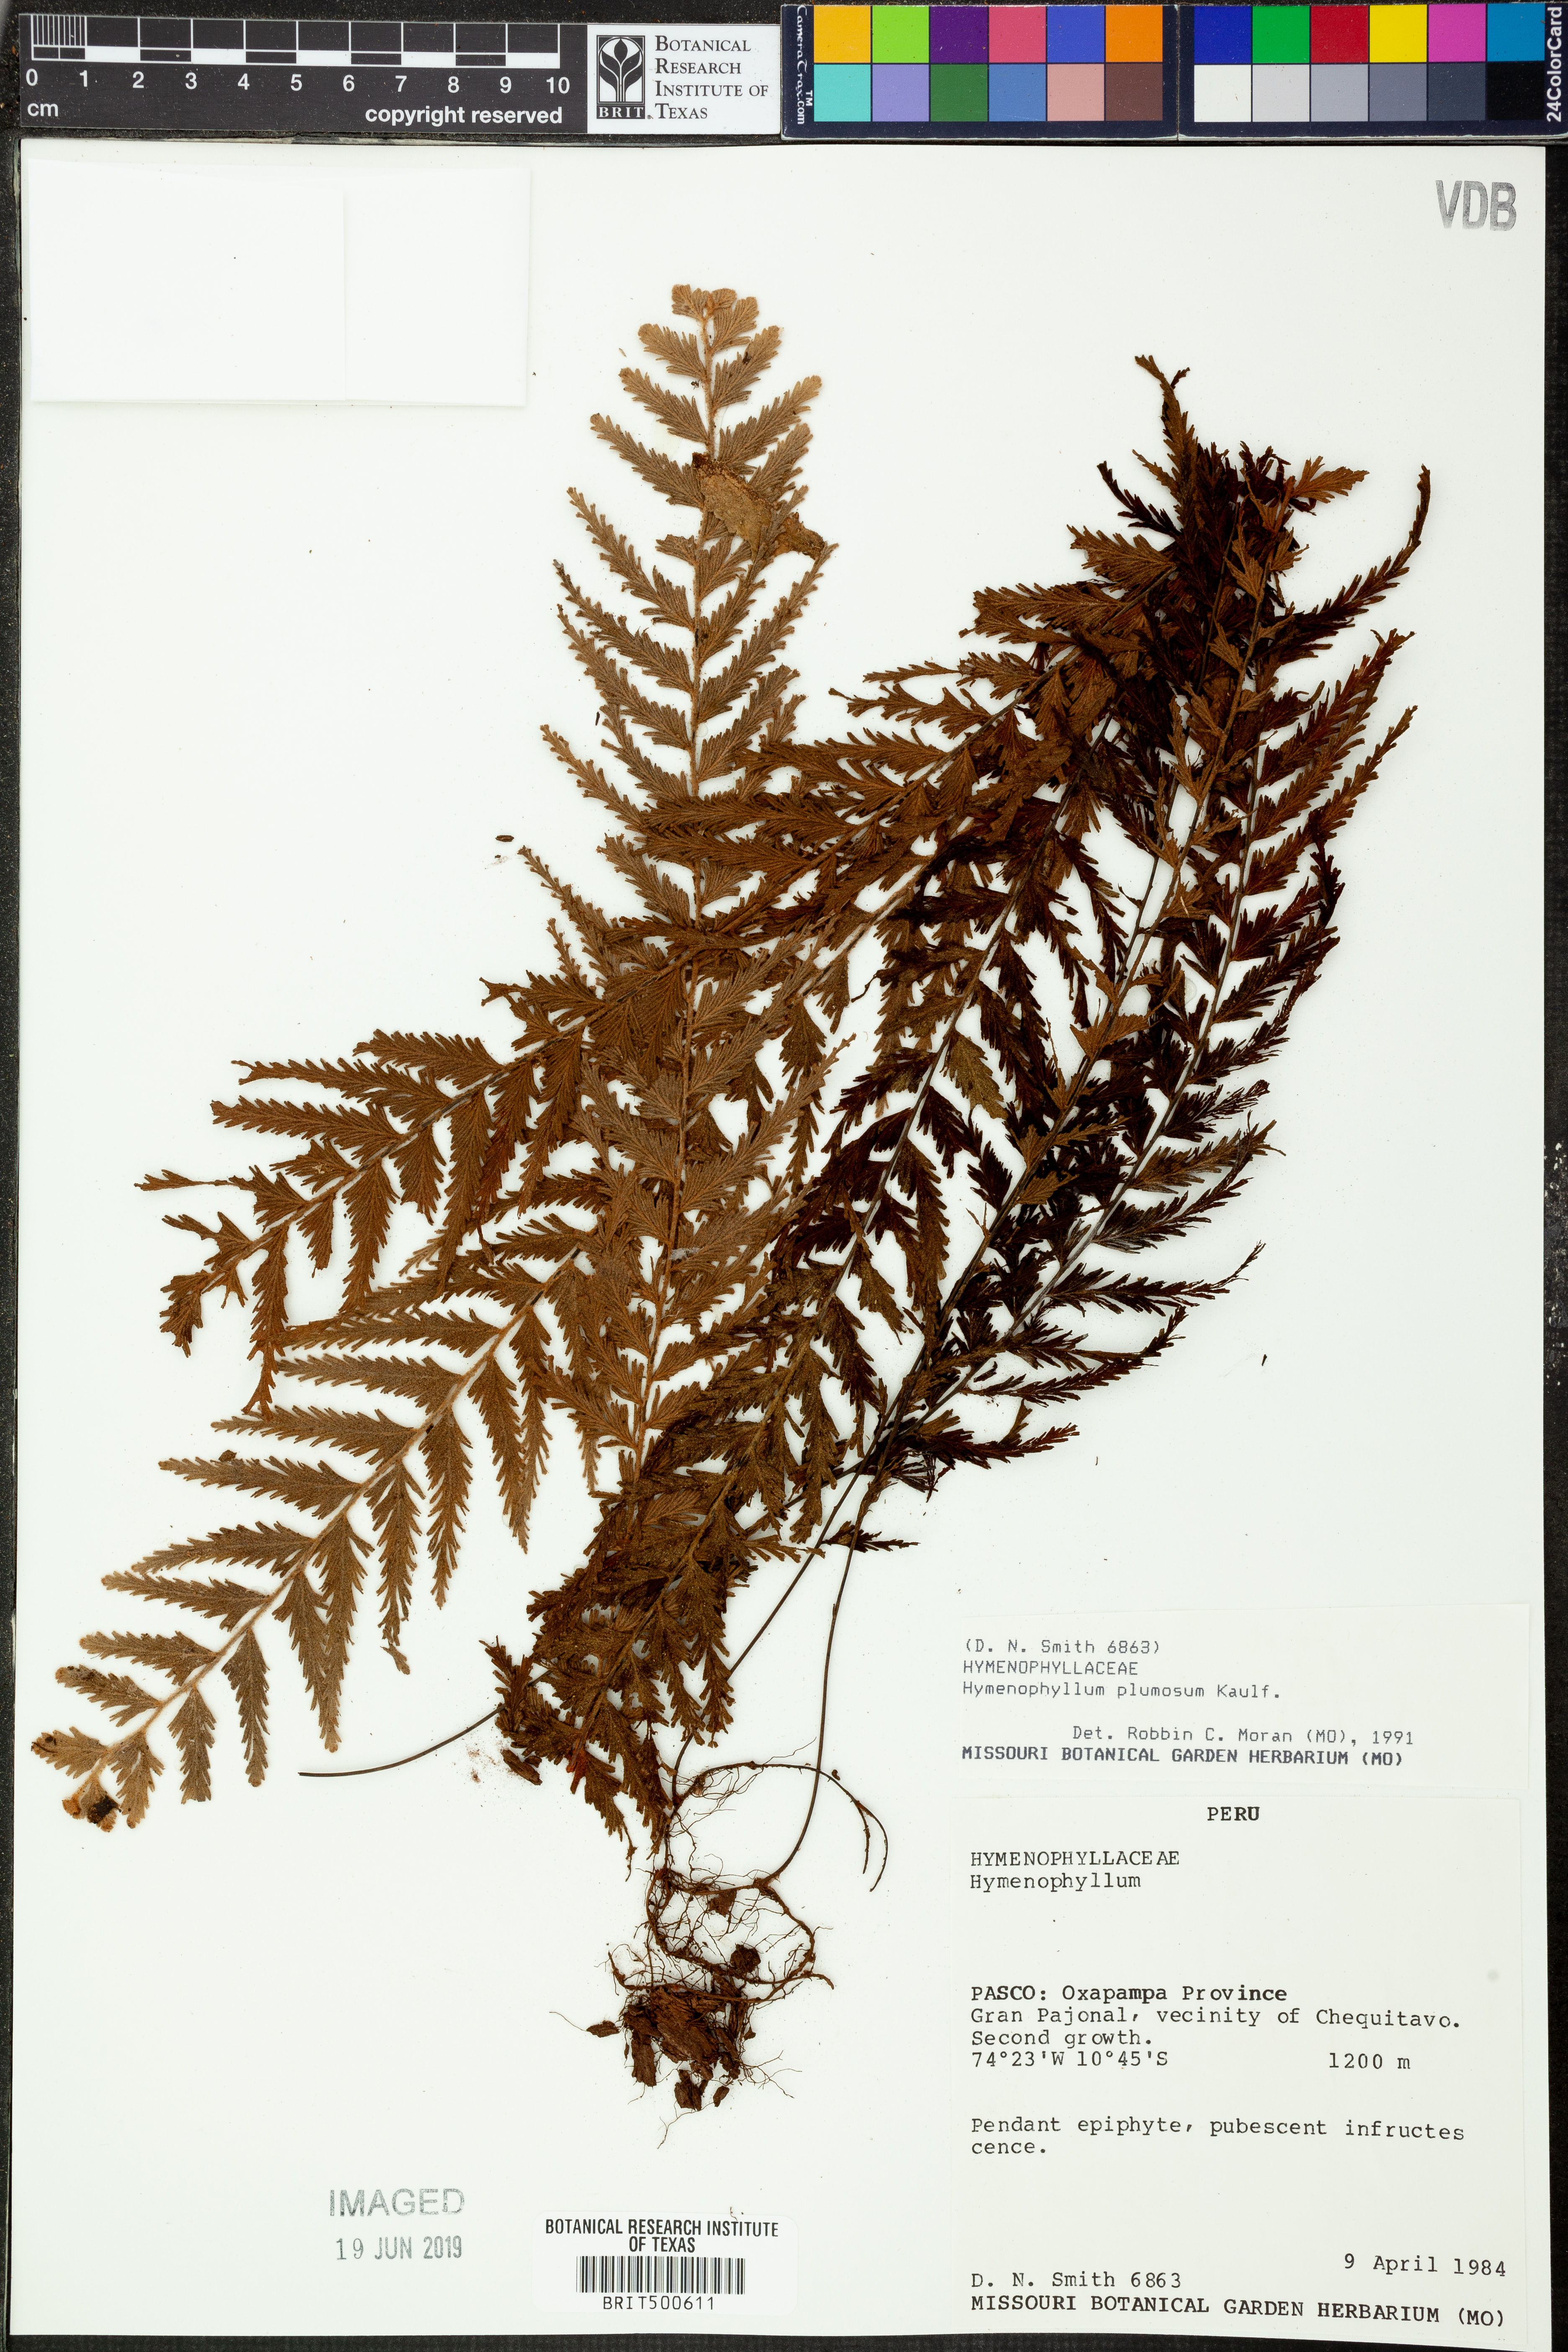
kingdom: Plantae
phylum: Tracheophyta
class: Polypodiopsida
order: Hymenophyllales
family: Hymenophyllaceae
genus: Hymenophyllum
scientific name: Hymenophyllum plumosum
